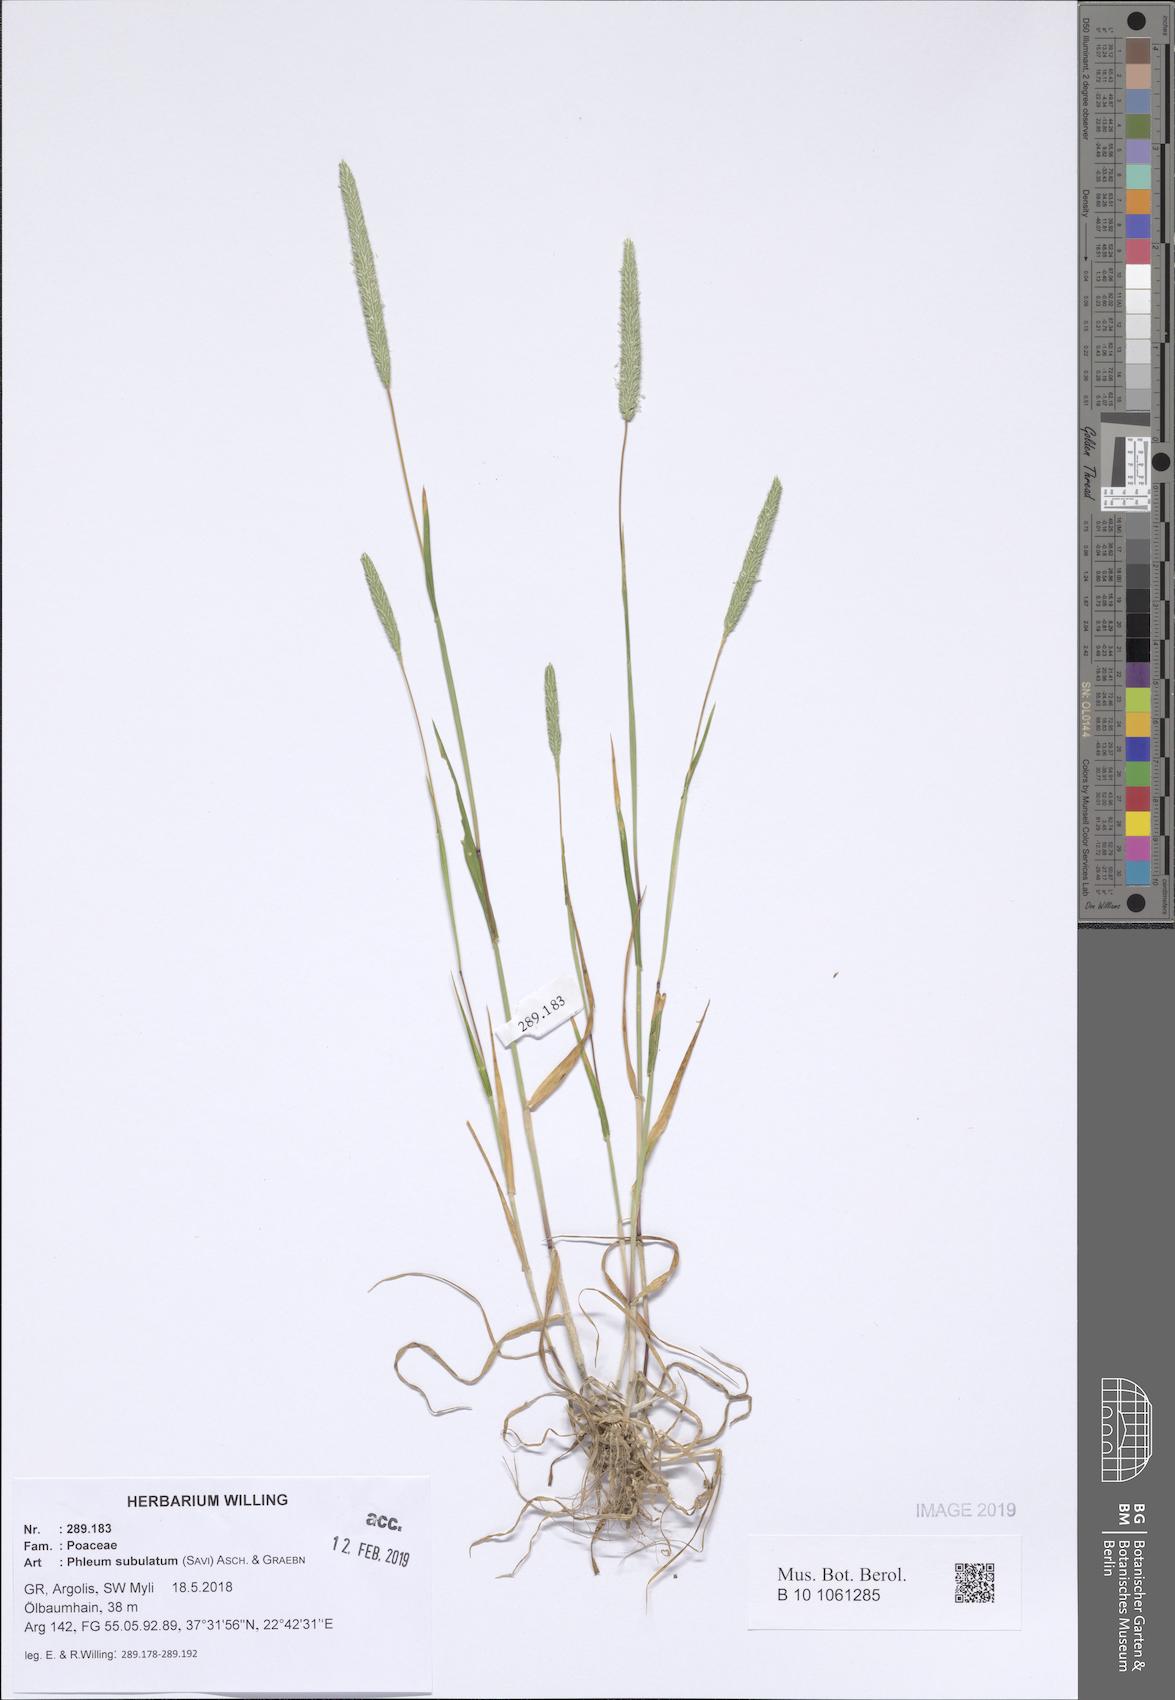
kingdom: Plantae
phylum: Tracheophyta
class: Liliopsida
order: Poales
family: Poaceae
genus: Phleum
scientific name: Phleum subulatum
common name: Italian timothy
